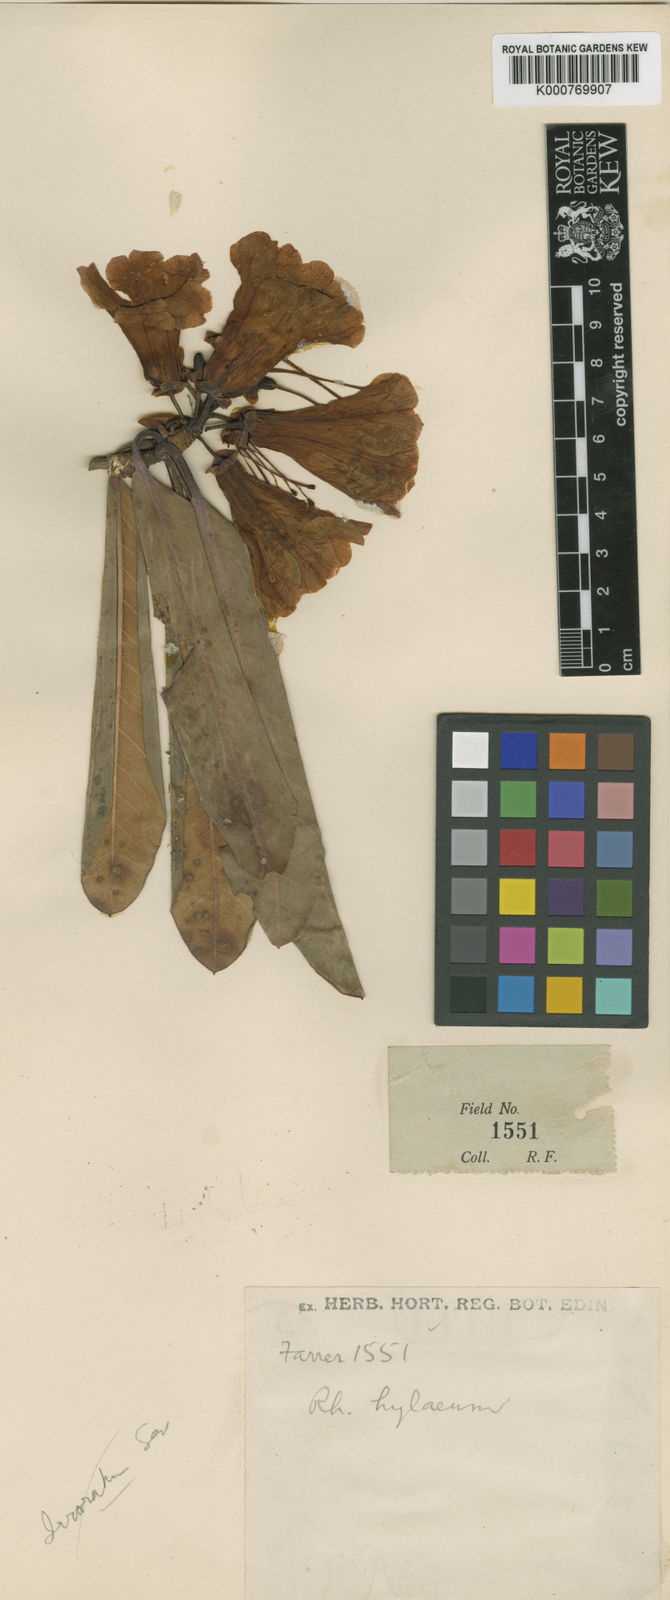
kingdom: Plantae
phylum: Tracheophyta
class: Magnoliopsida
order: Ericales
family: Ericaceae
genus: Rhododendron
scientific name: Rhododendron
